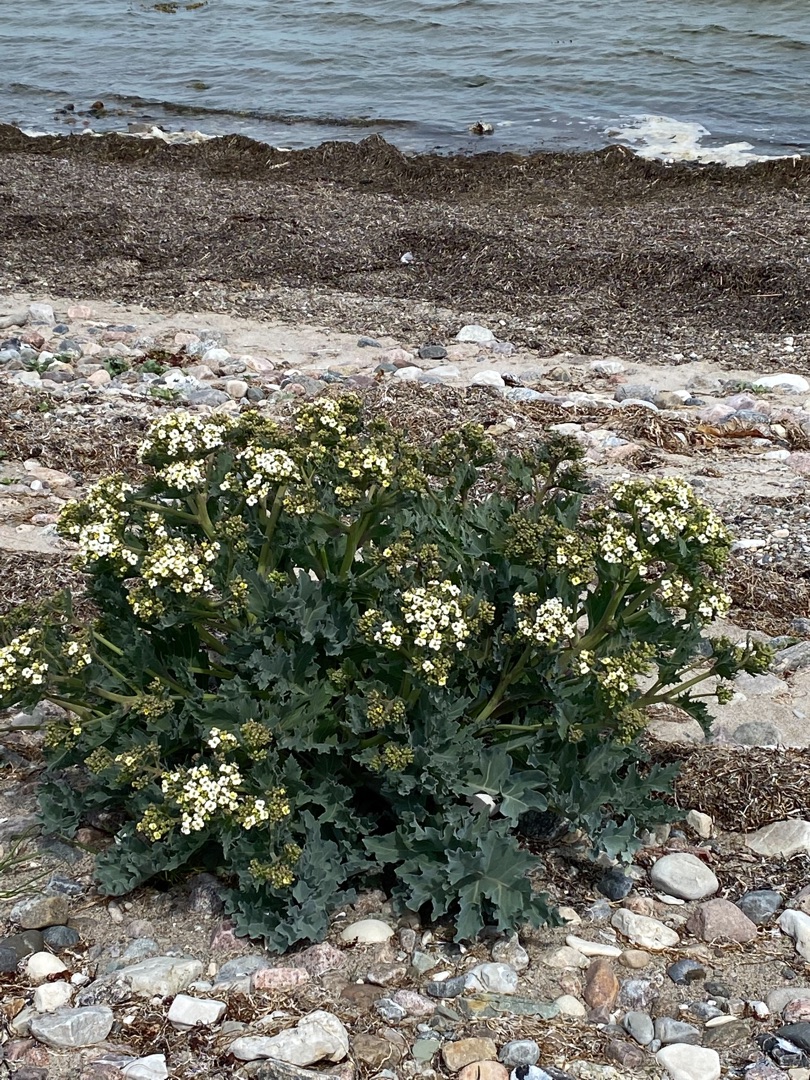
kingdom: Plantae
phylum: Tracheophyta
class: Magnoliopsida
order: Brassicales
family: Brassicaceae
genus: Crambe
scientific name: Crambe maritima
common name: Strandkål
